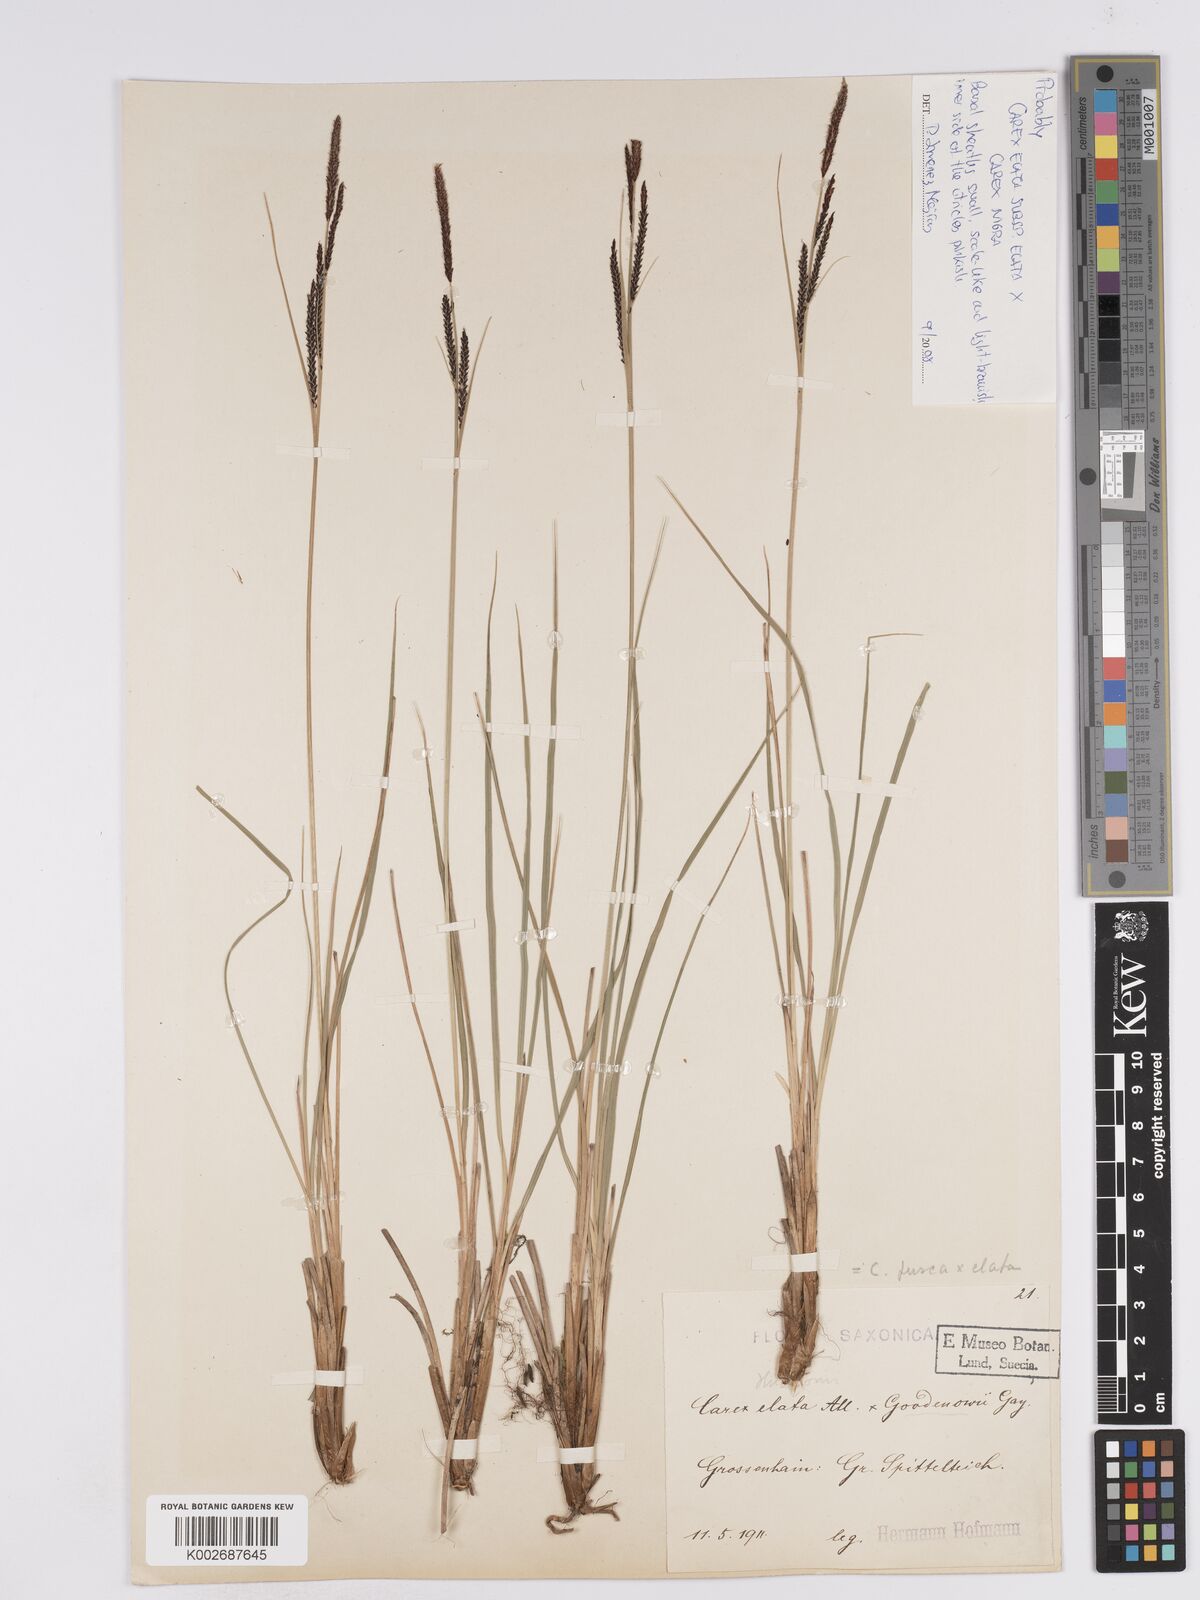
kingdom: Plantae
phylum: Tracheophyta
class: Liliopsida
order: Poales
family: Cyperaceae
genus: Carex
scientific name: Carex nigra
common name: Common sedge
